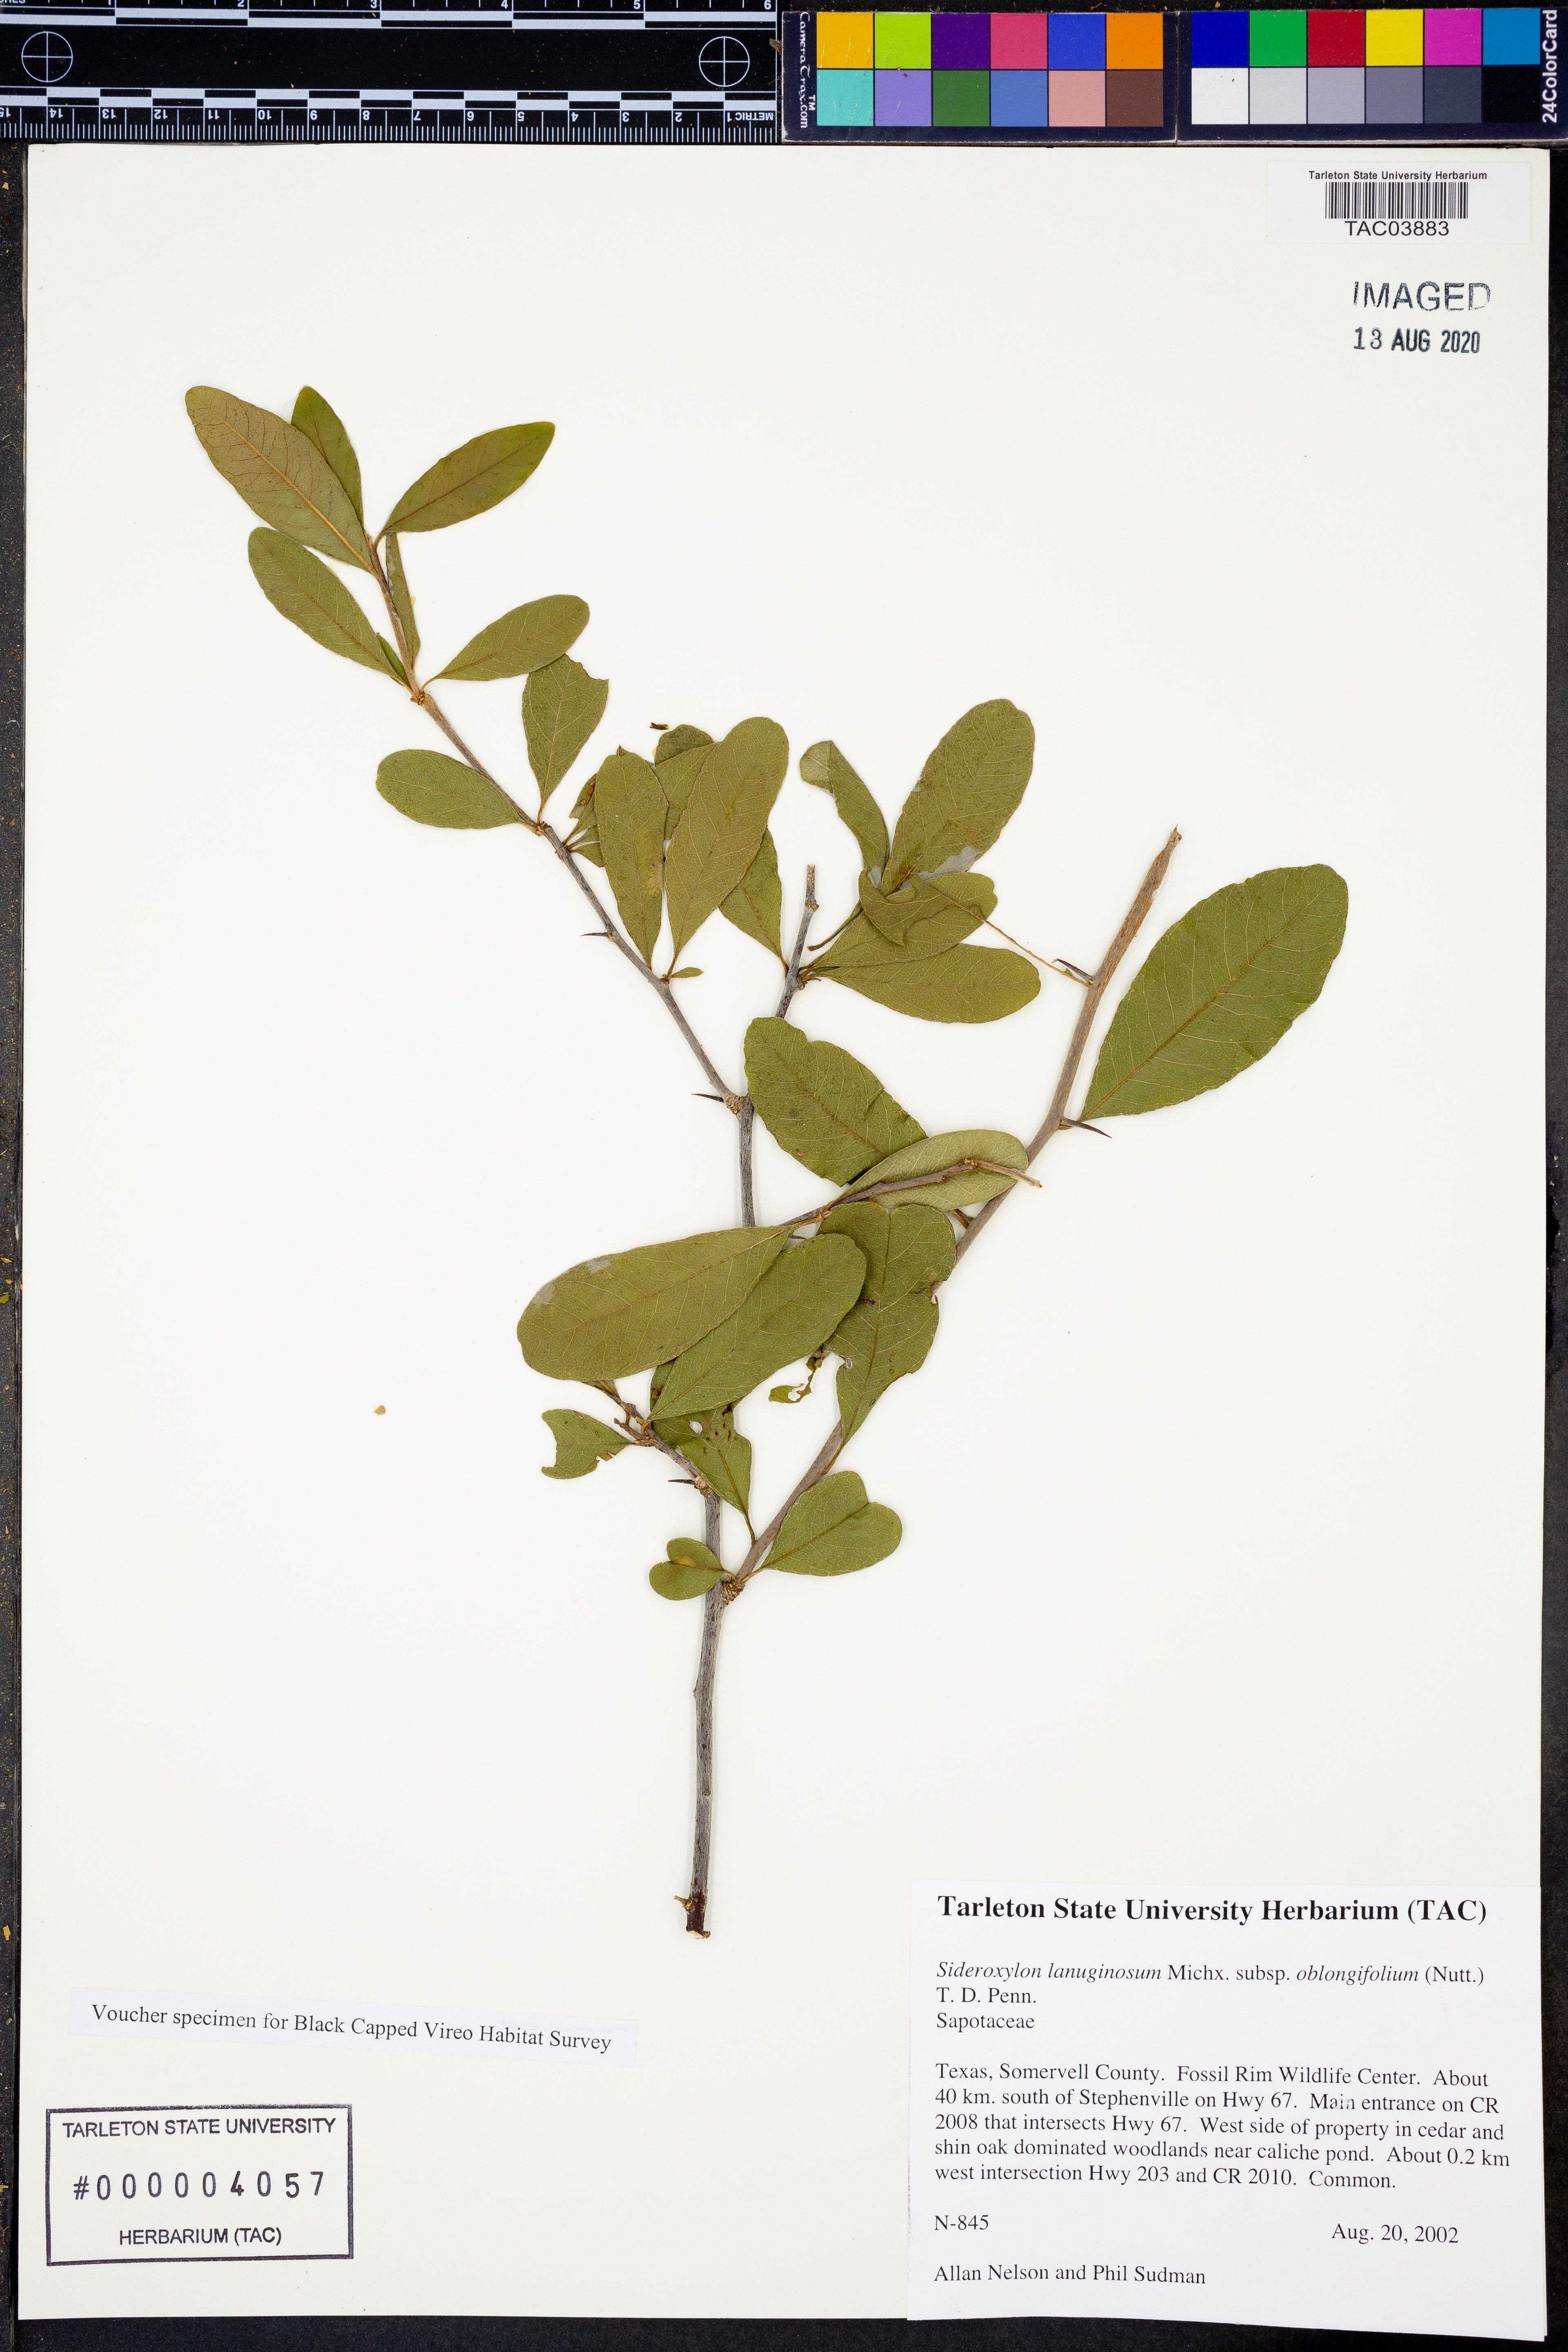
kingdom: Plantae
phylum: Tracheophyta
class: Magnoliopsida
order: Ericales
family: Sapotaceae
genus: Sideroxylon
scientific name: Sideroxylon lanuginosum
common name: Chittamwood
